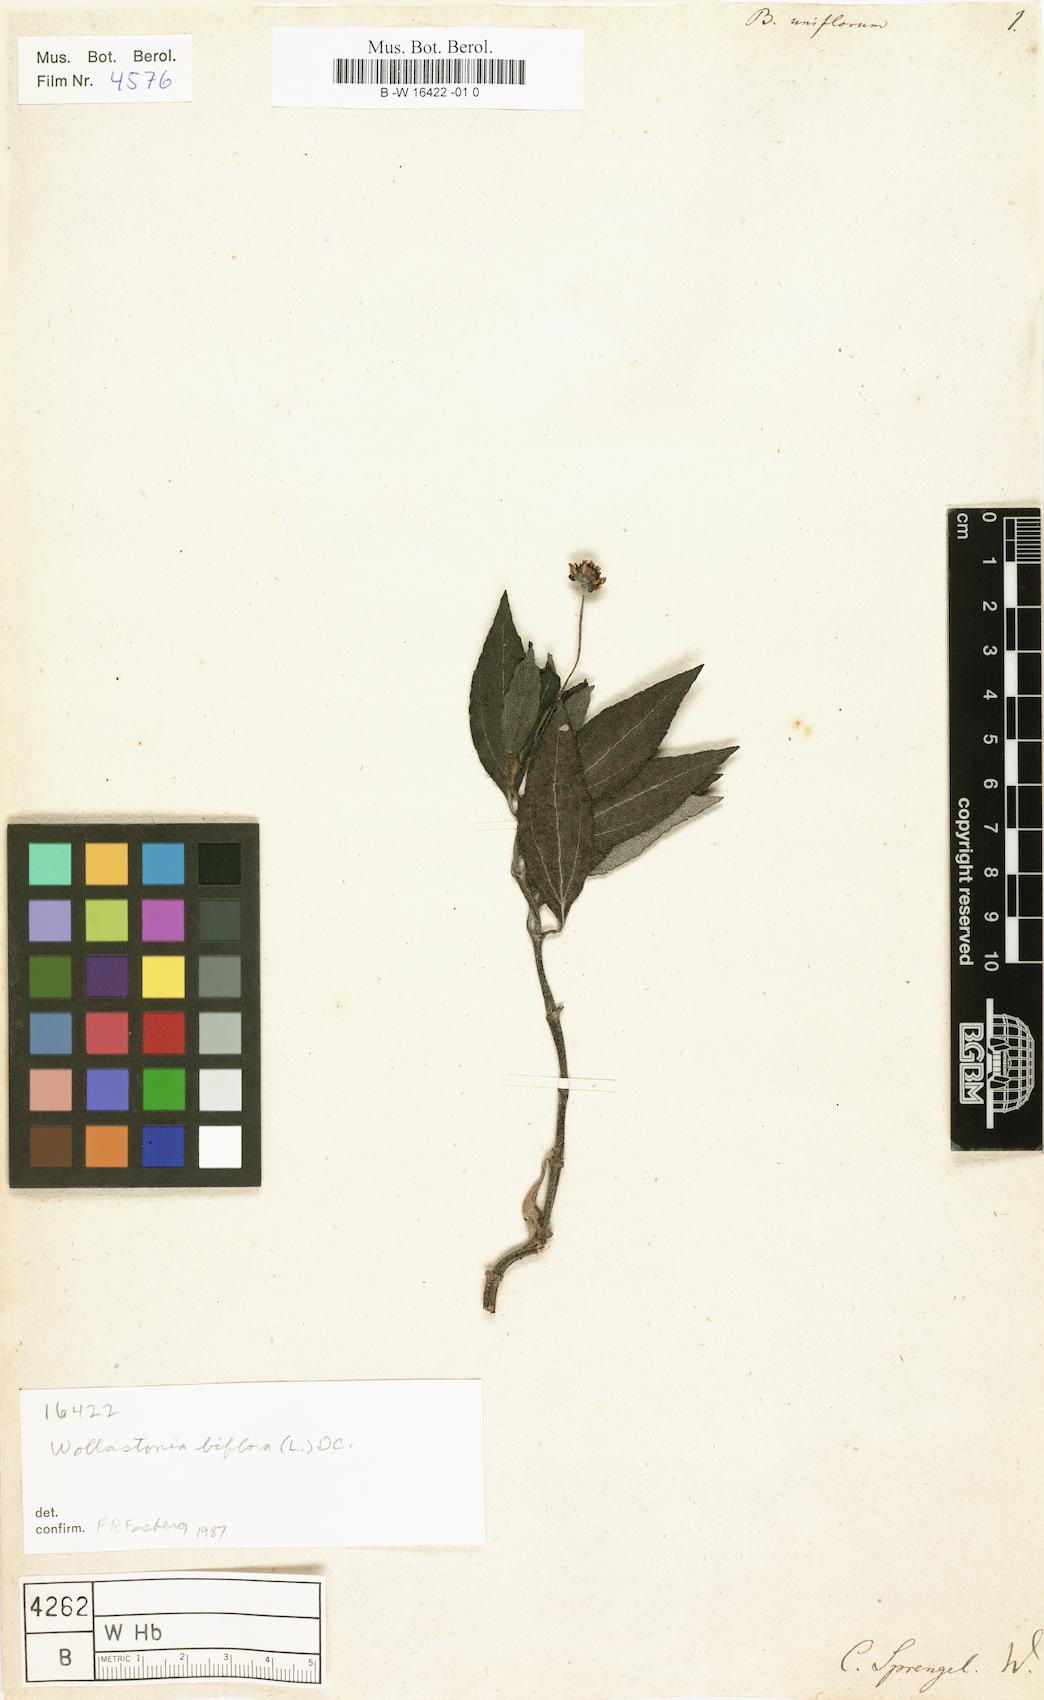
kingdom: Plantae
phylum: Tracheophyta
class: Magnoliopsida
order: Asterales
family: Asteraceae
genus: Wollastonia
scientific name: Wollastonia uniflora
